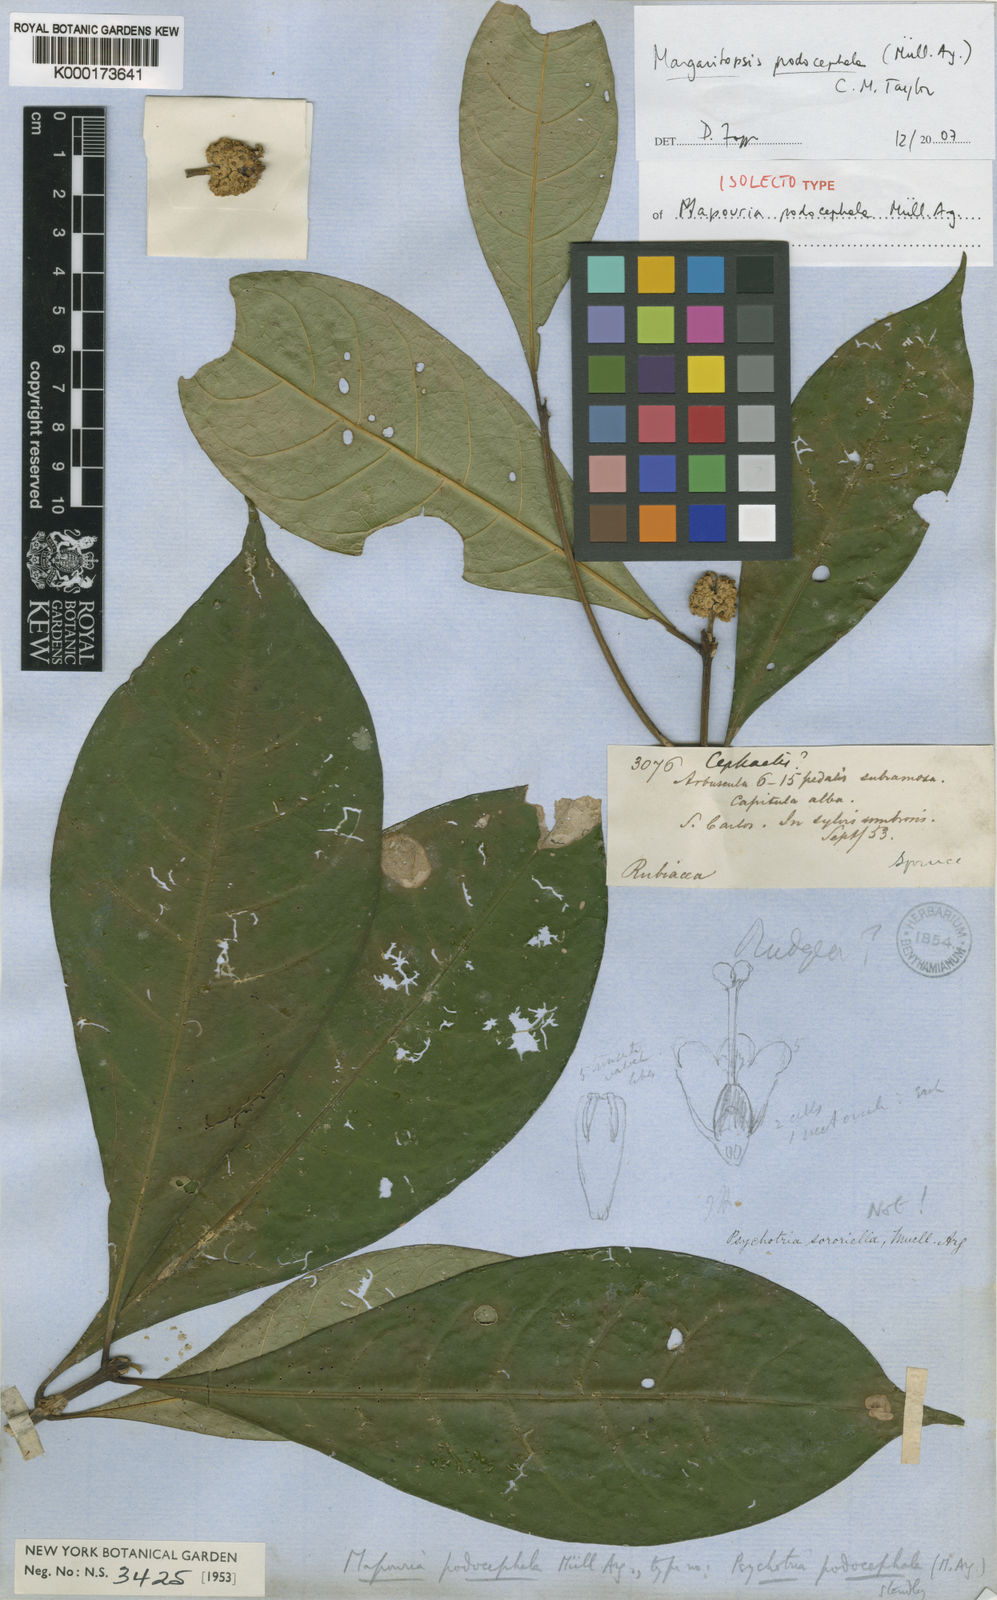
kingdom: Plantae
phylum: Tracheophyta
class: Magnoliopsida
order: Gentianales
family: Rubiaceae
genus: Eumachia
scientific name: Eumachia
